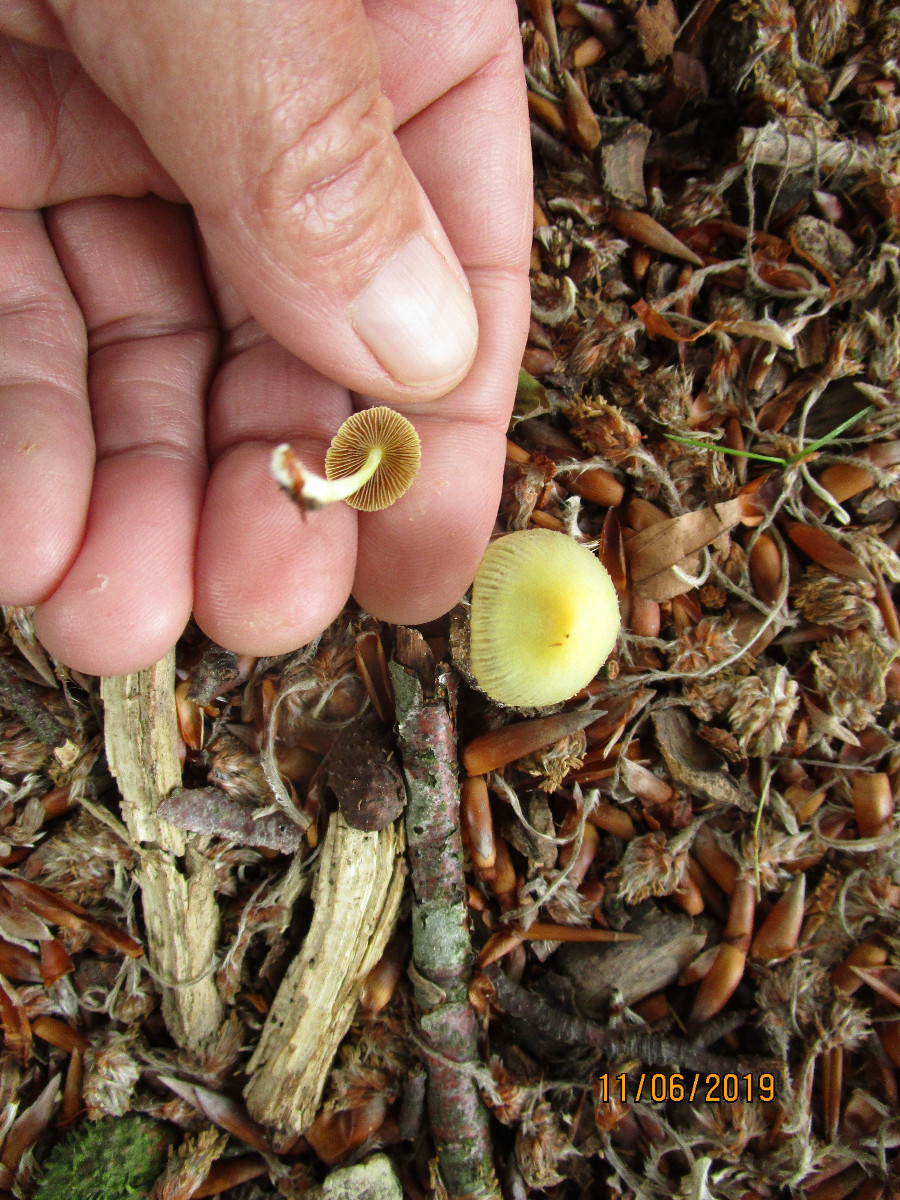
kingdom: Fungi
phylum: Basidiomycota
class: Agaricomycetes
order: Agaricales
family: Bolbitiaceae
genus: Bolbitius
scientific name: Bolbitius titubans
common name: almindelig gulhat
